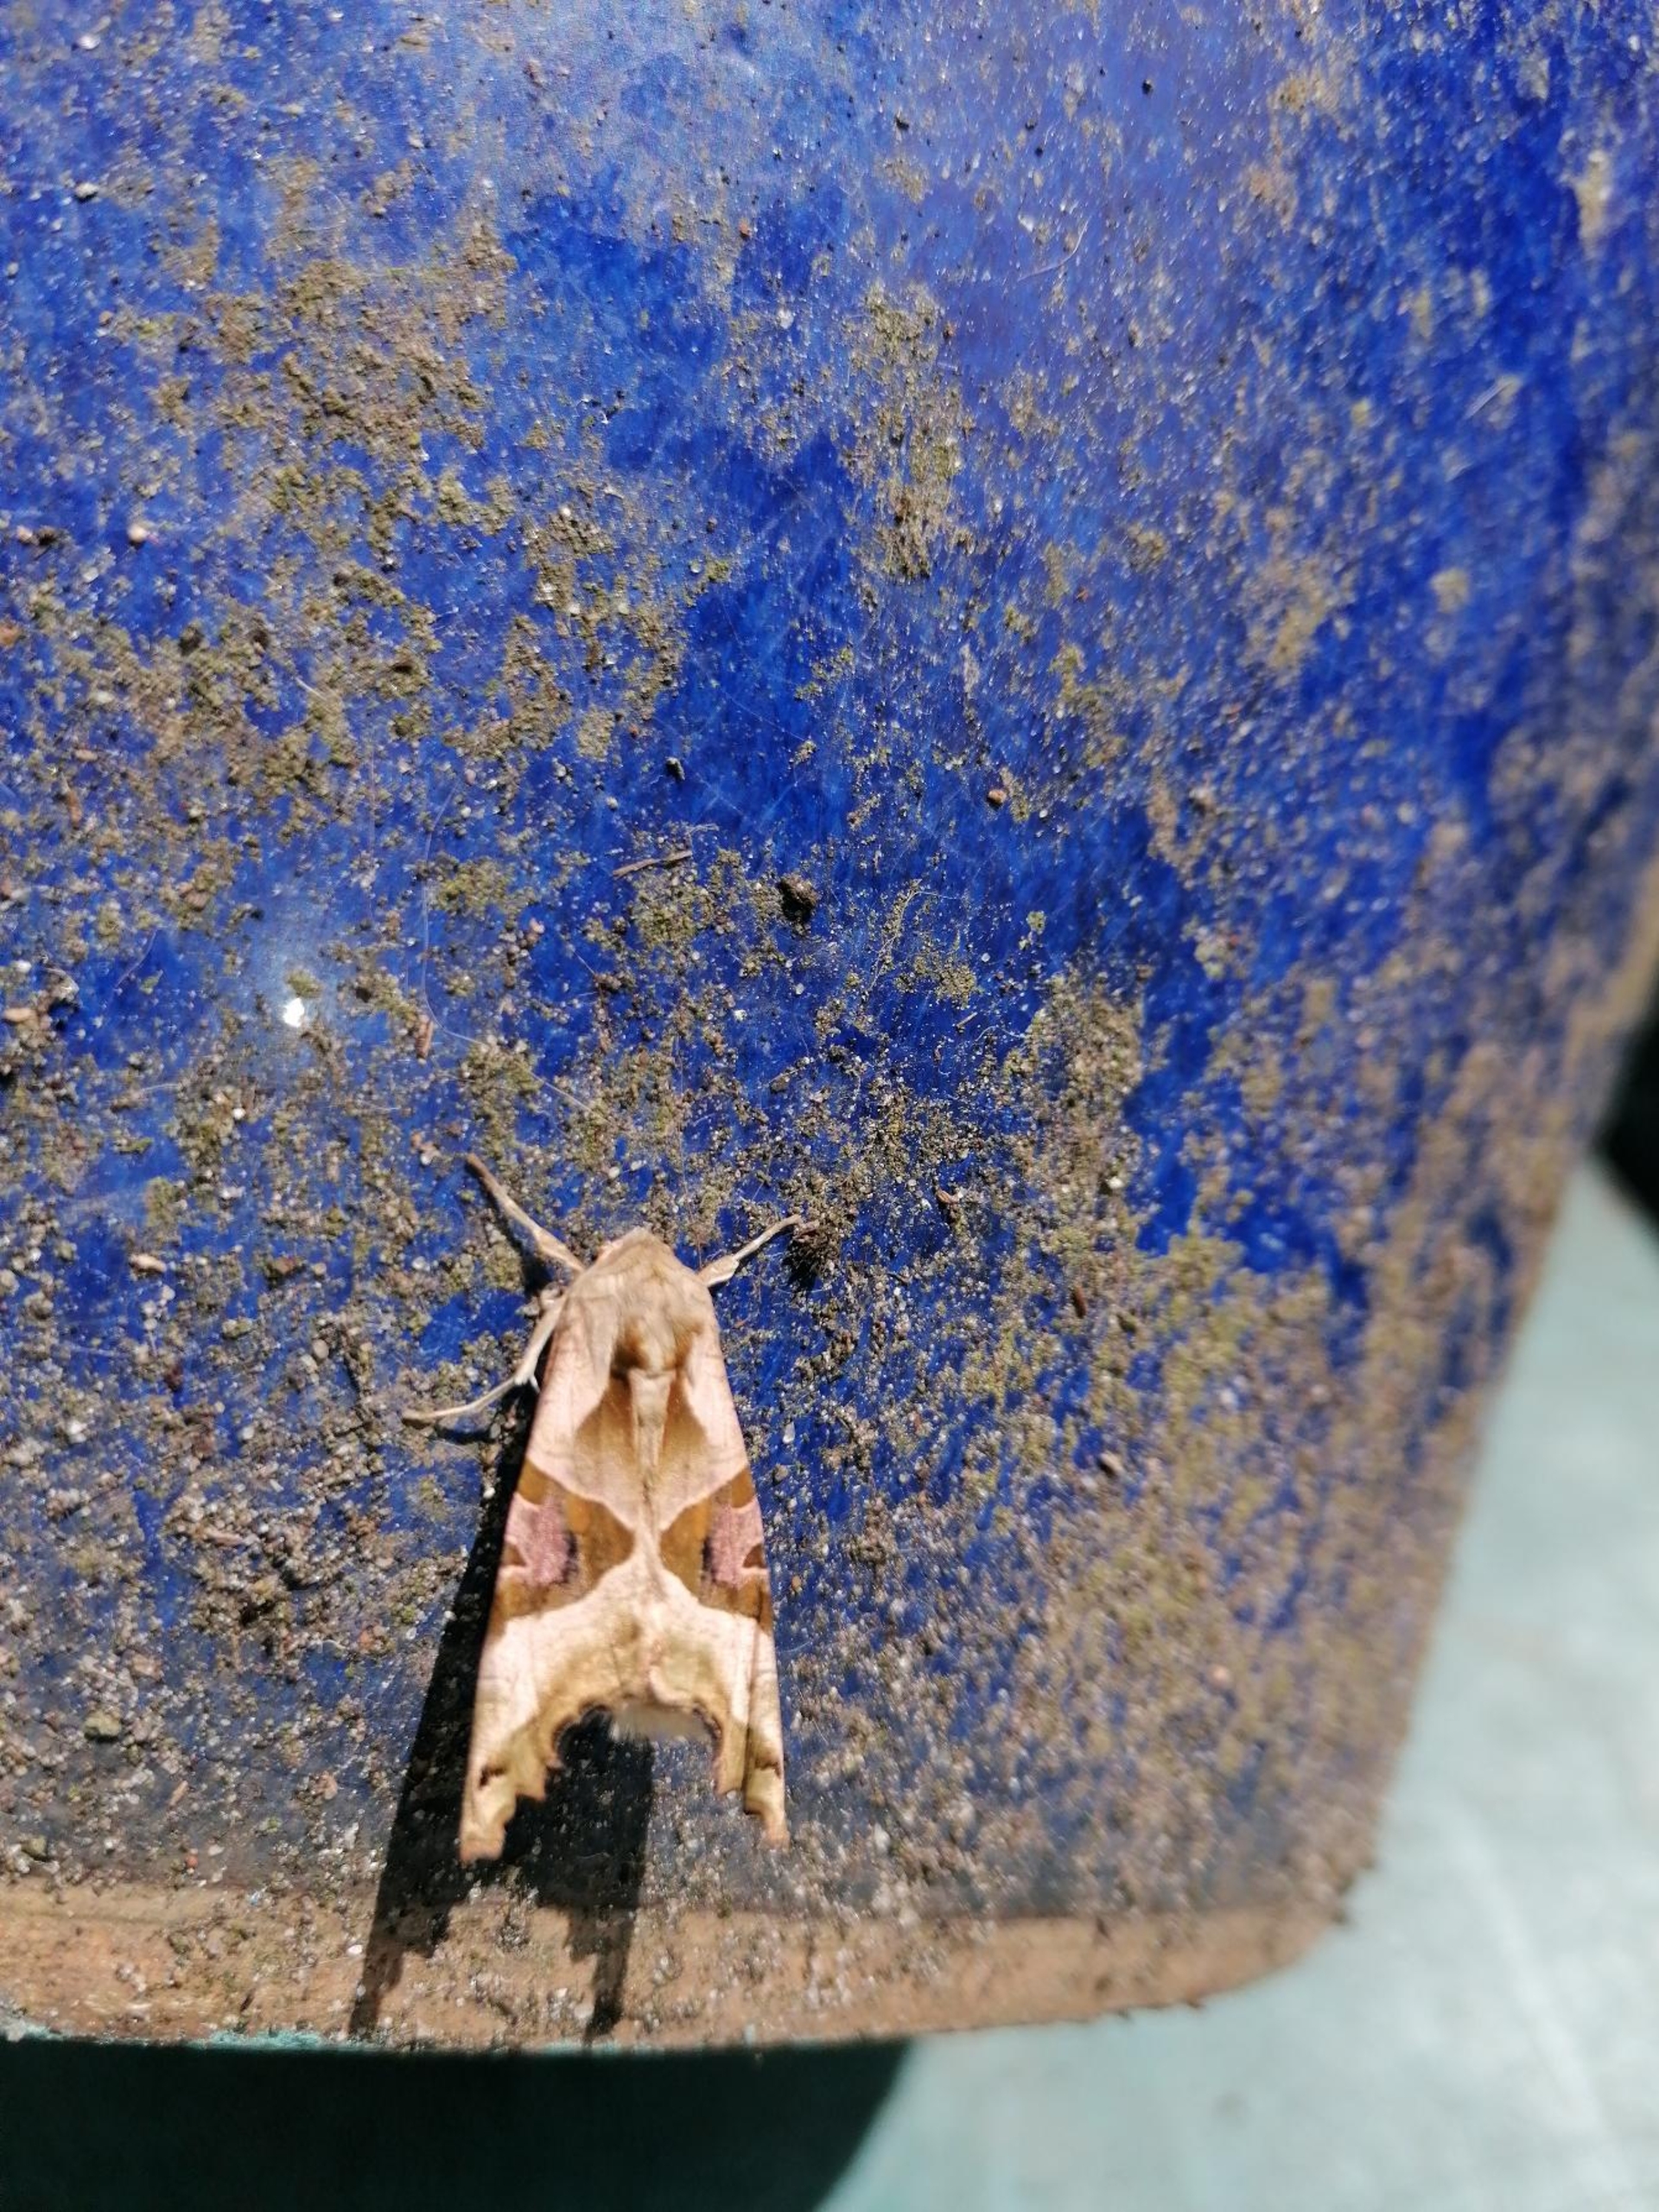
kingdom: Animalia
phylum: Arthropoda
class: Insecta
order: Lepidoptera
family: Noctuidae
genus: Phlogophora
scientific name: Phlogophora meticulosa
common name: Agatugle
